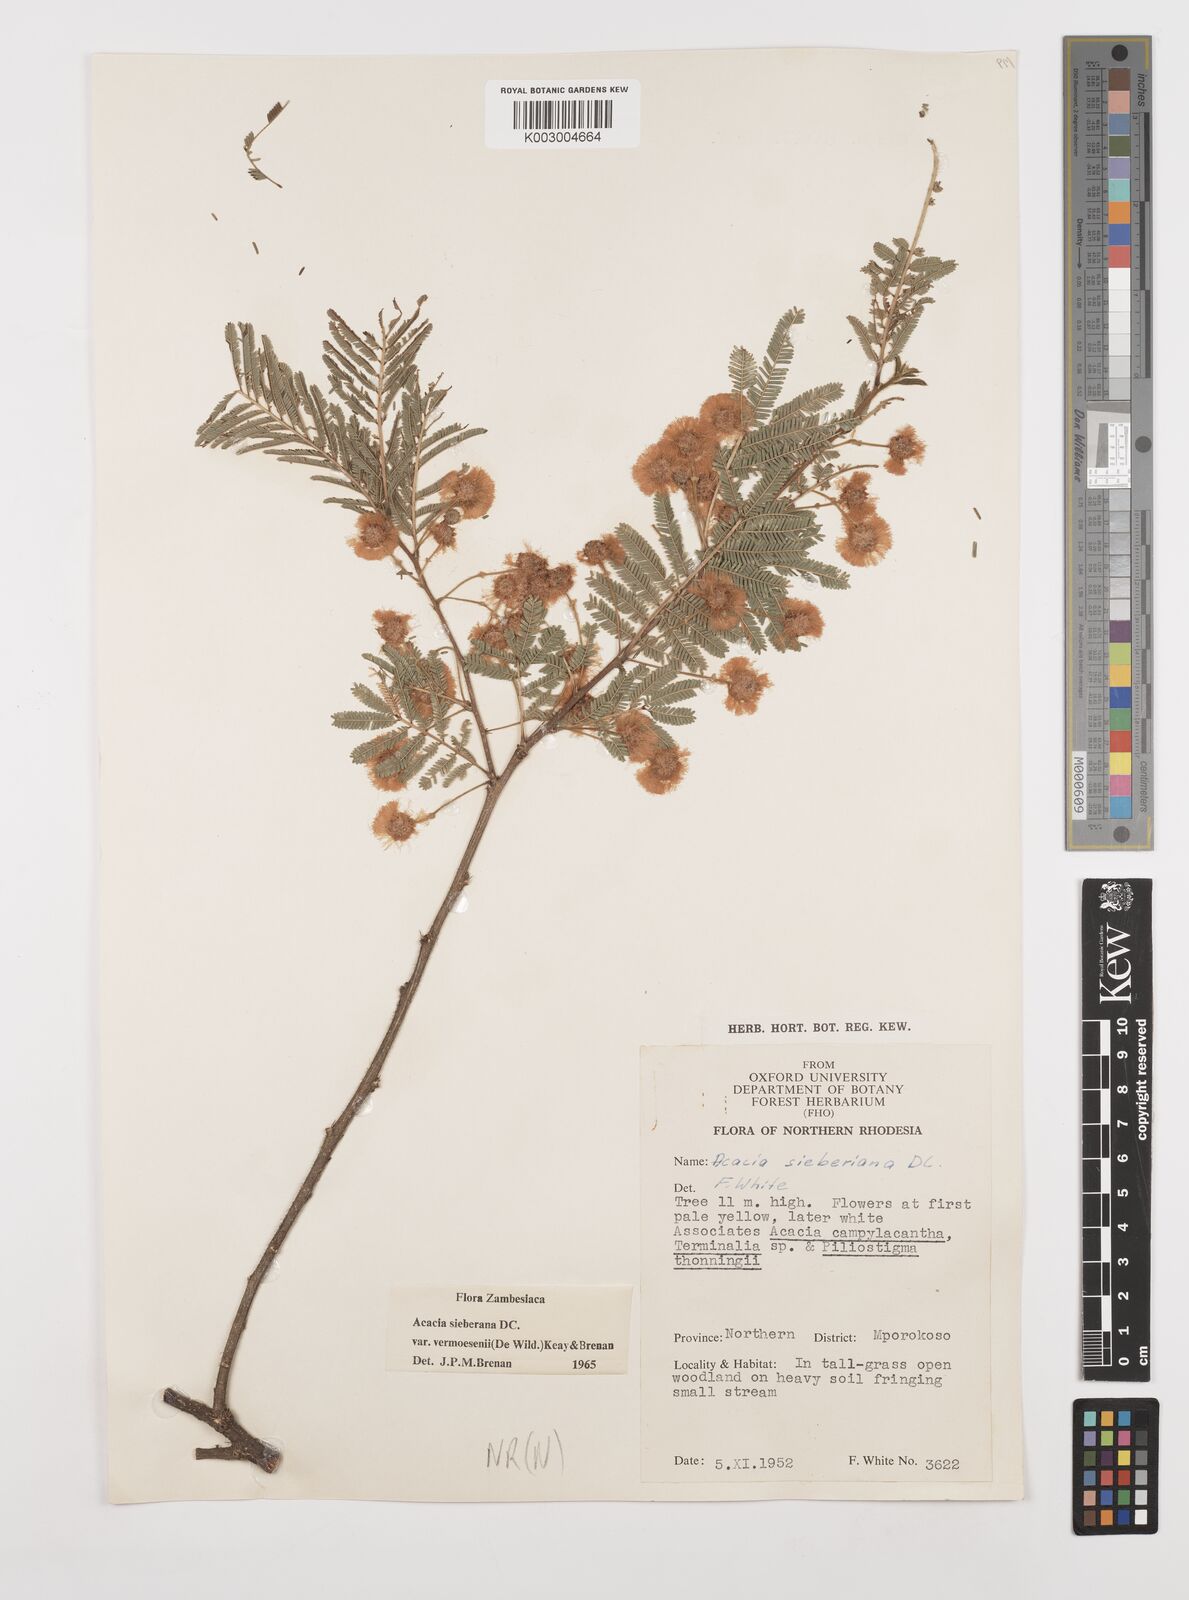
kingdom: Plantae
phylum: Tracheophyta
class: Magnoliopsida
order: Fabales
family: Fabaceae
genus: Vachellia
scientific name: Vachellia sieberiana
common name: Flat-topped thorn
